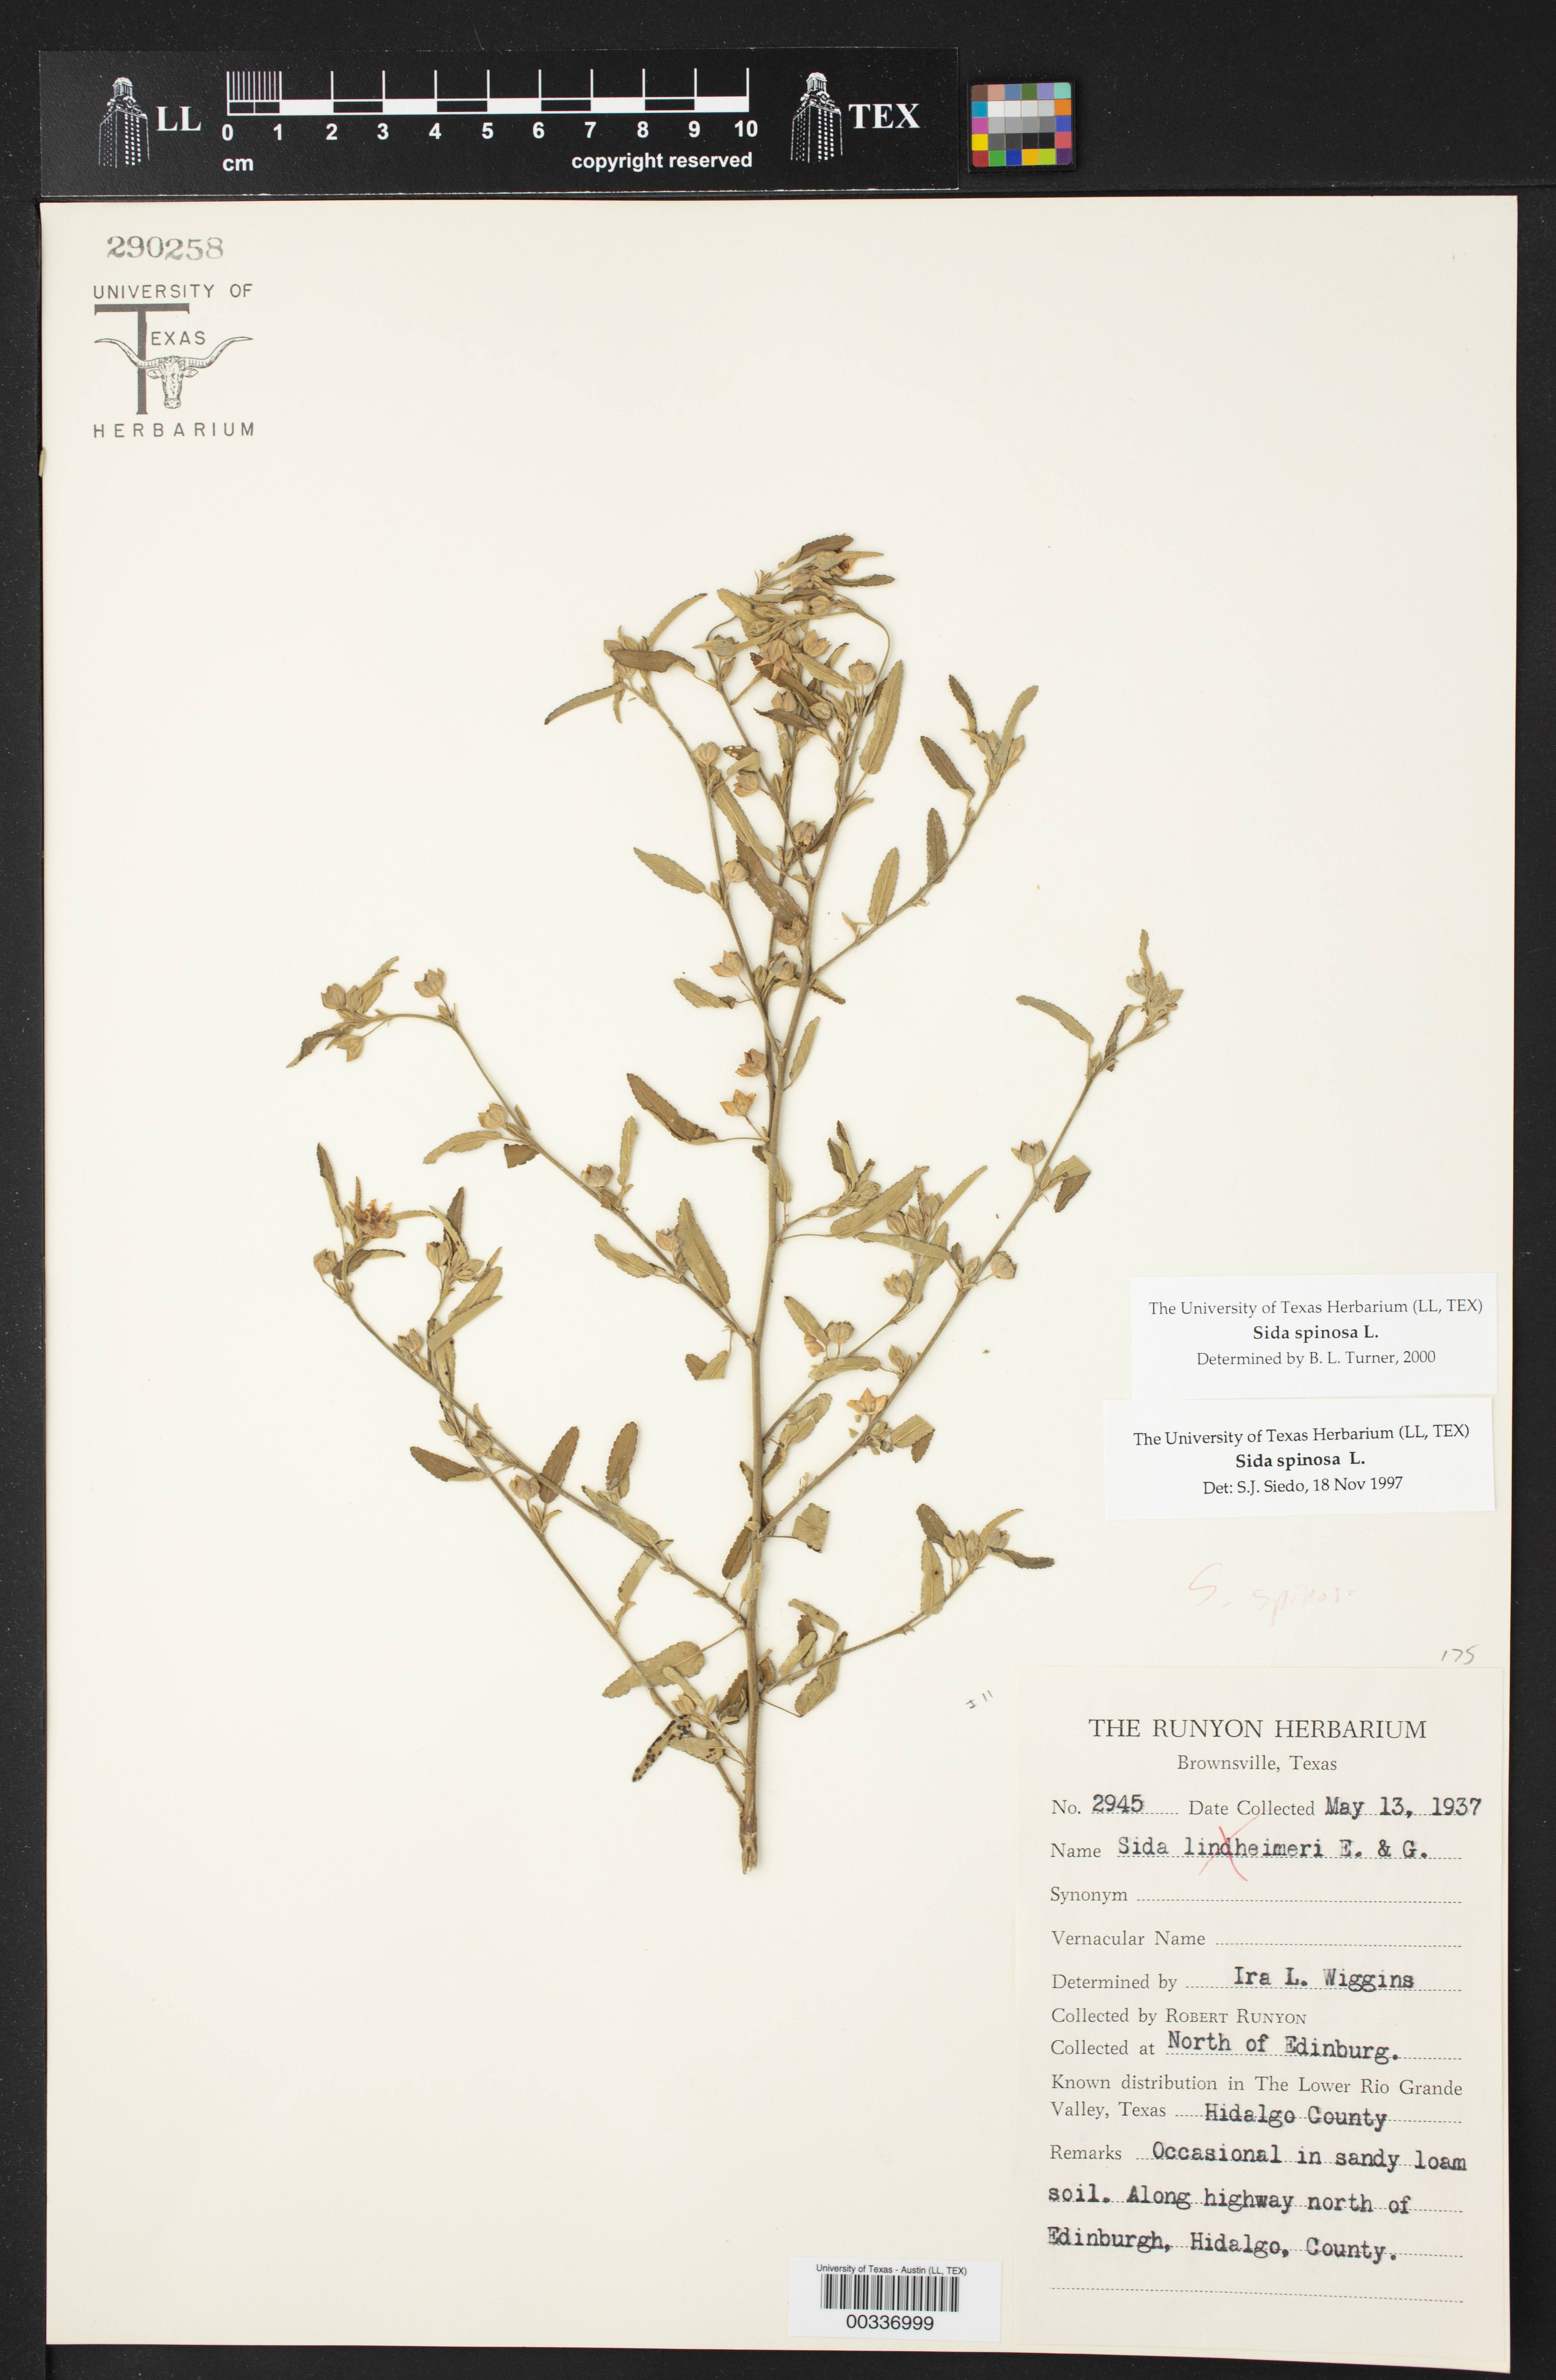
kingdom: Plantae
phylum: Tracheophyta
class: Magnoliopsida
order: Malvales
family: Malvaceae
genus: Sida
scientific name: Sida spinosa
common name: Prickly fanpetals
